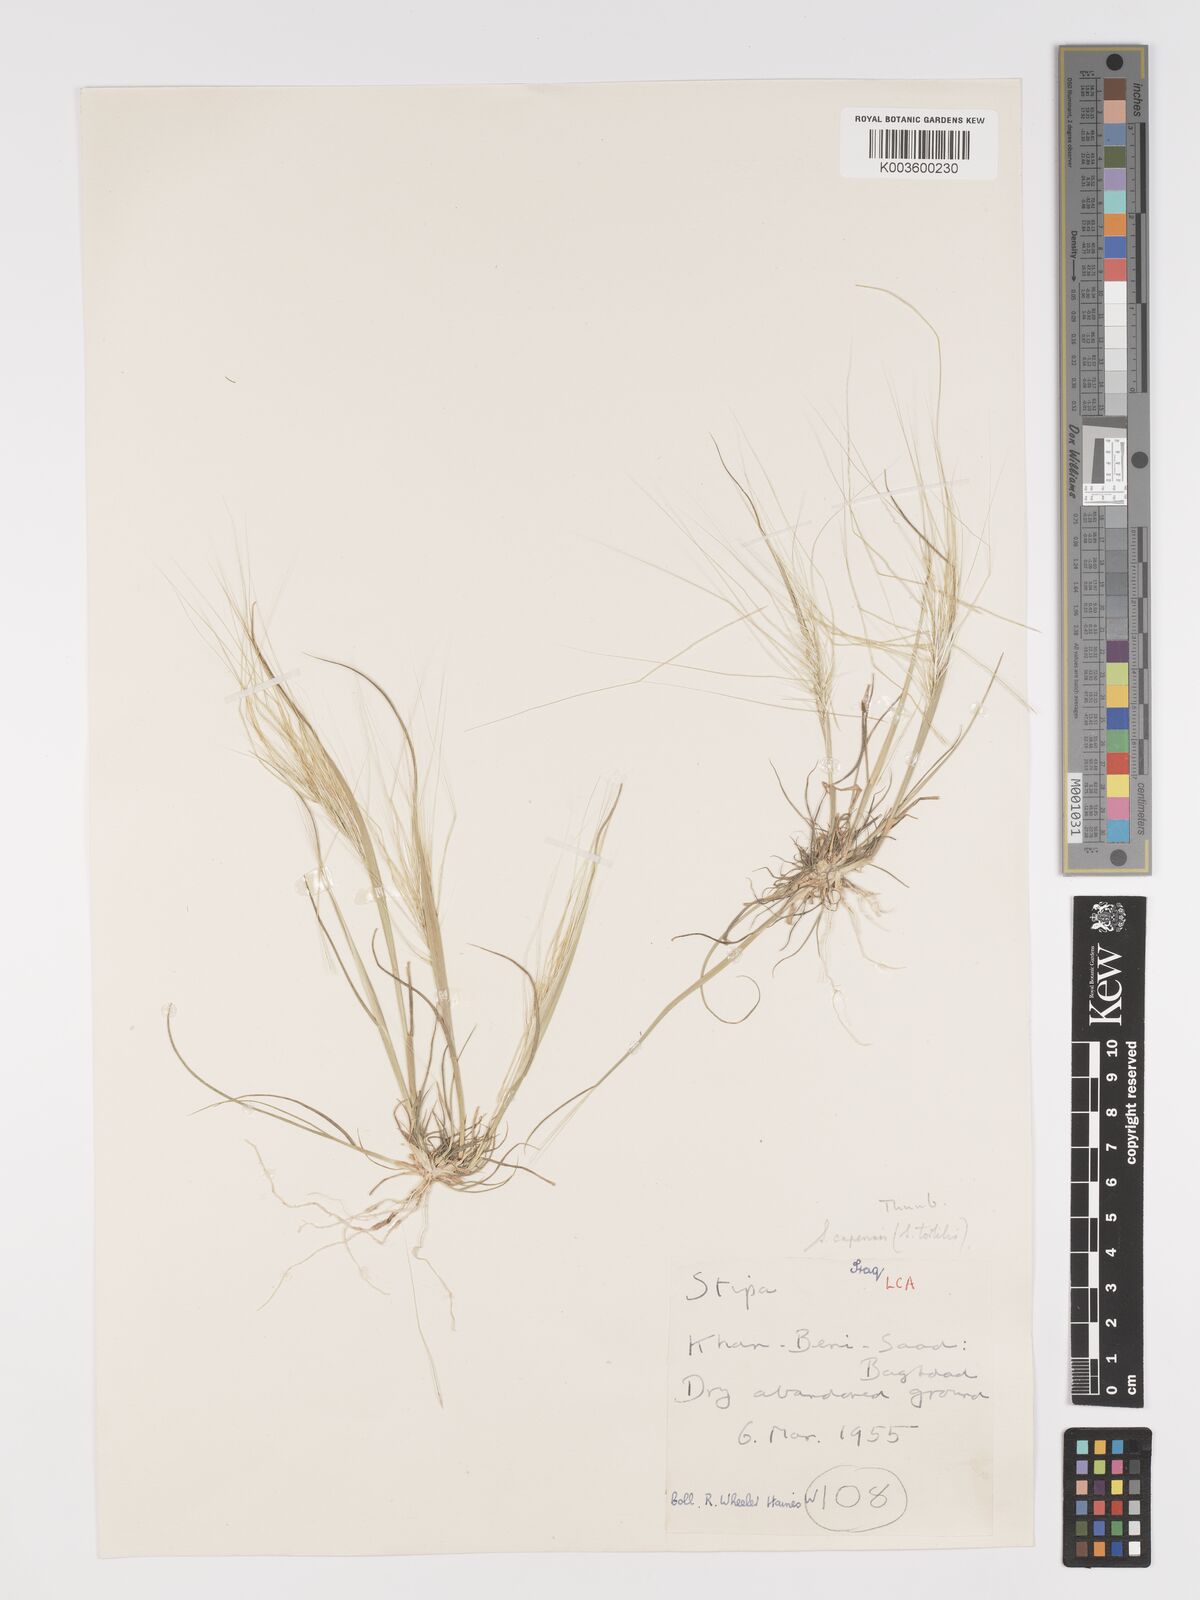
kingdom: Plantae
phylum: Tracheophyta
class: Liliopsida
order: Poales
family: Poaceae
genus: Stipellula
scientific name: Stipellula capensis
